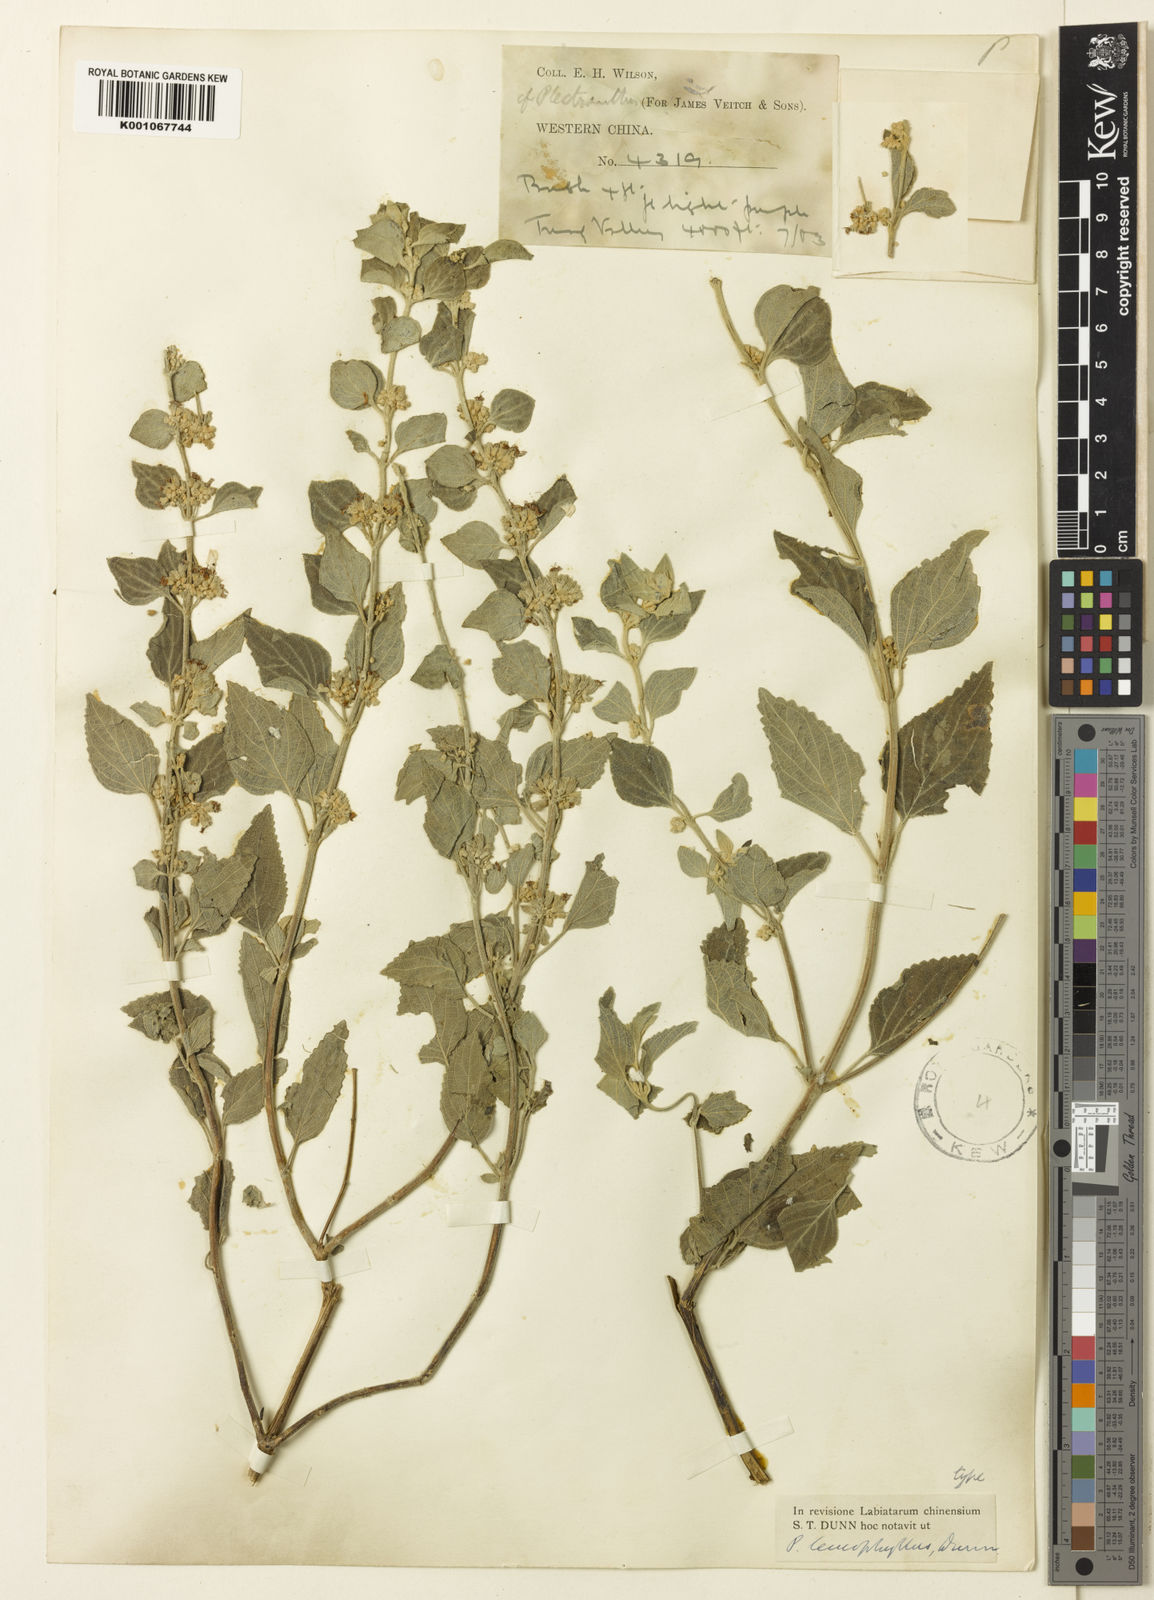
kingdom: Plantae
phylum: Tracheophyta
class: Magnoliopsida
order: Lamiales
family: Lamiaceae
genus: Isodon
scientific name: Isodon
